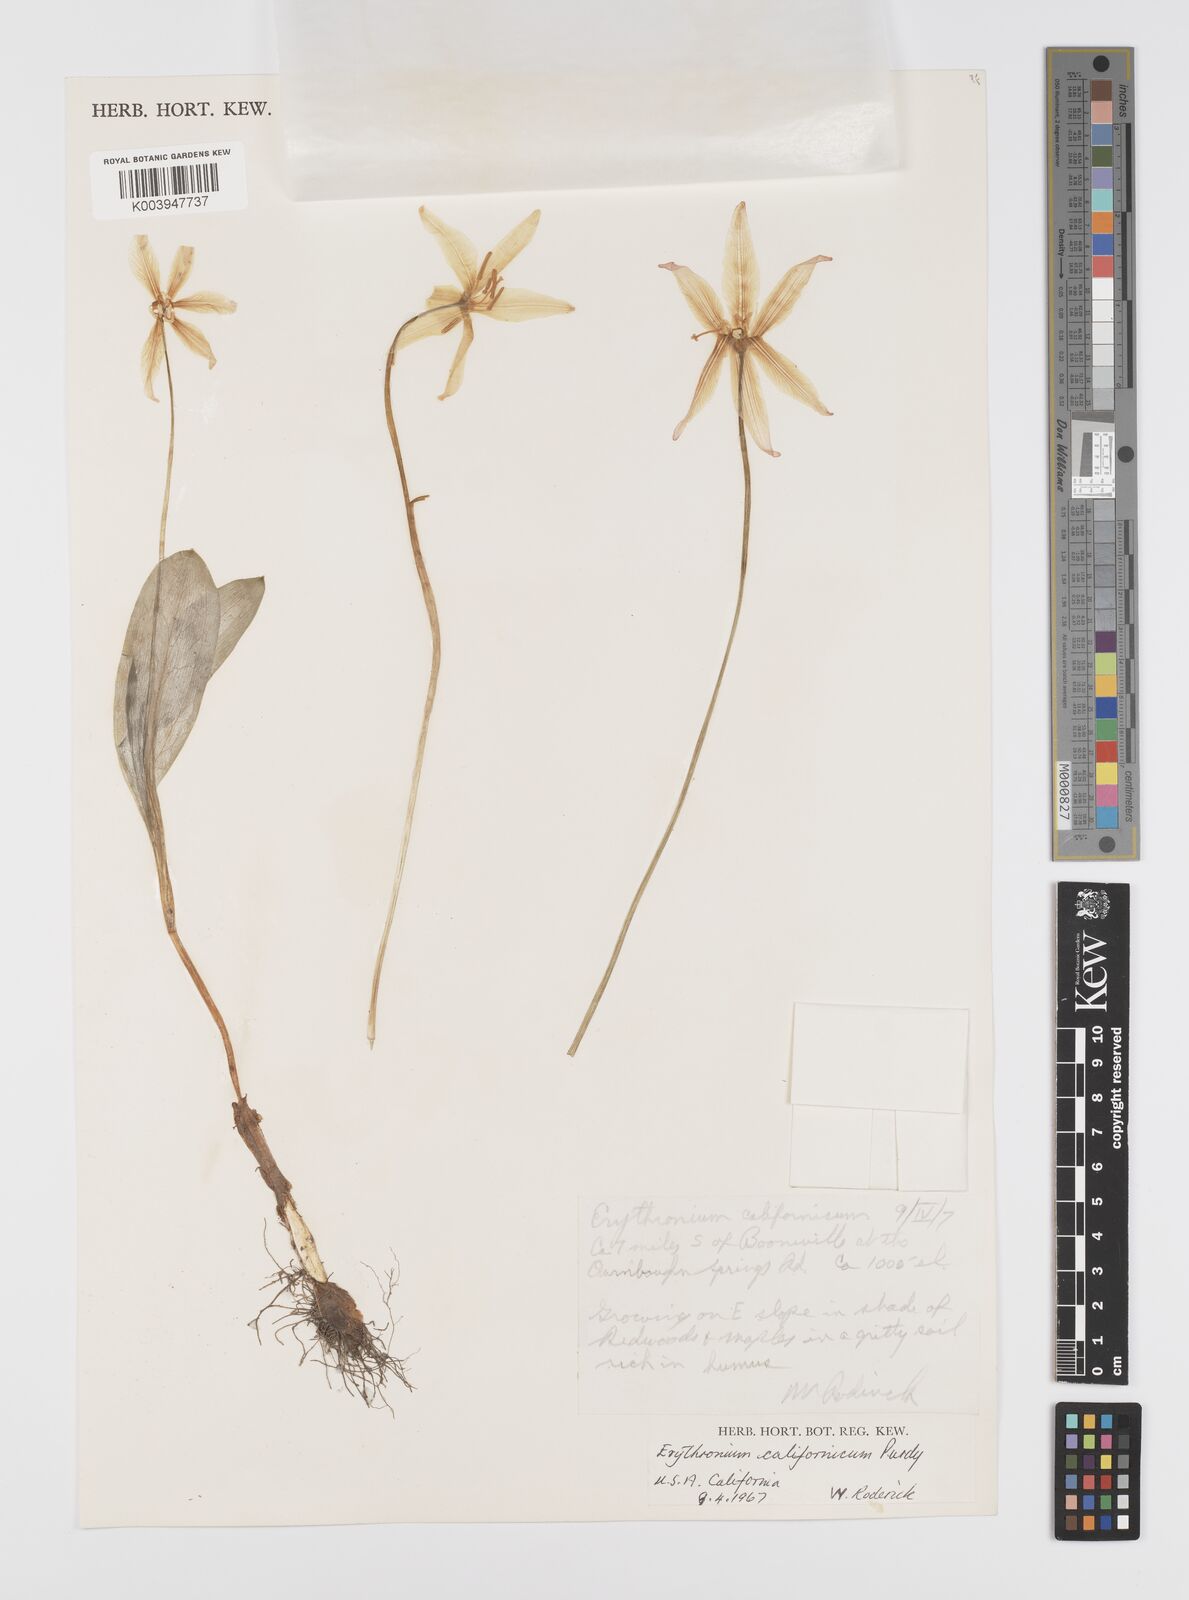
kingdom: Plantae
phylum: Tracheophyta
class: Liliopsida
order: Liliales
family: Liliaceae
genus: Erythronium
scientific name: Erythronium californicum
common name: Fawn-lily
